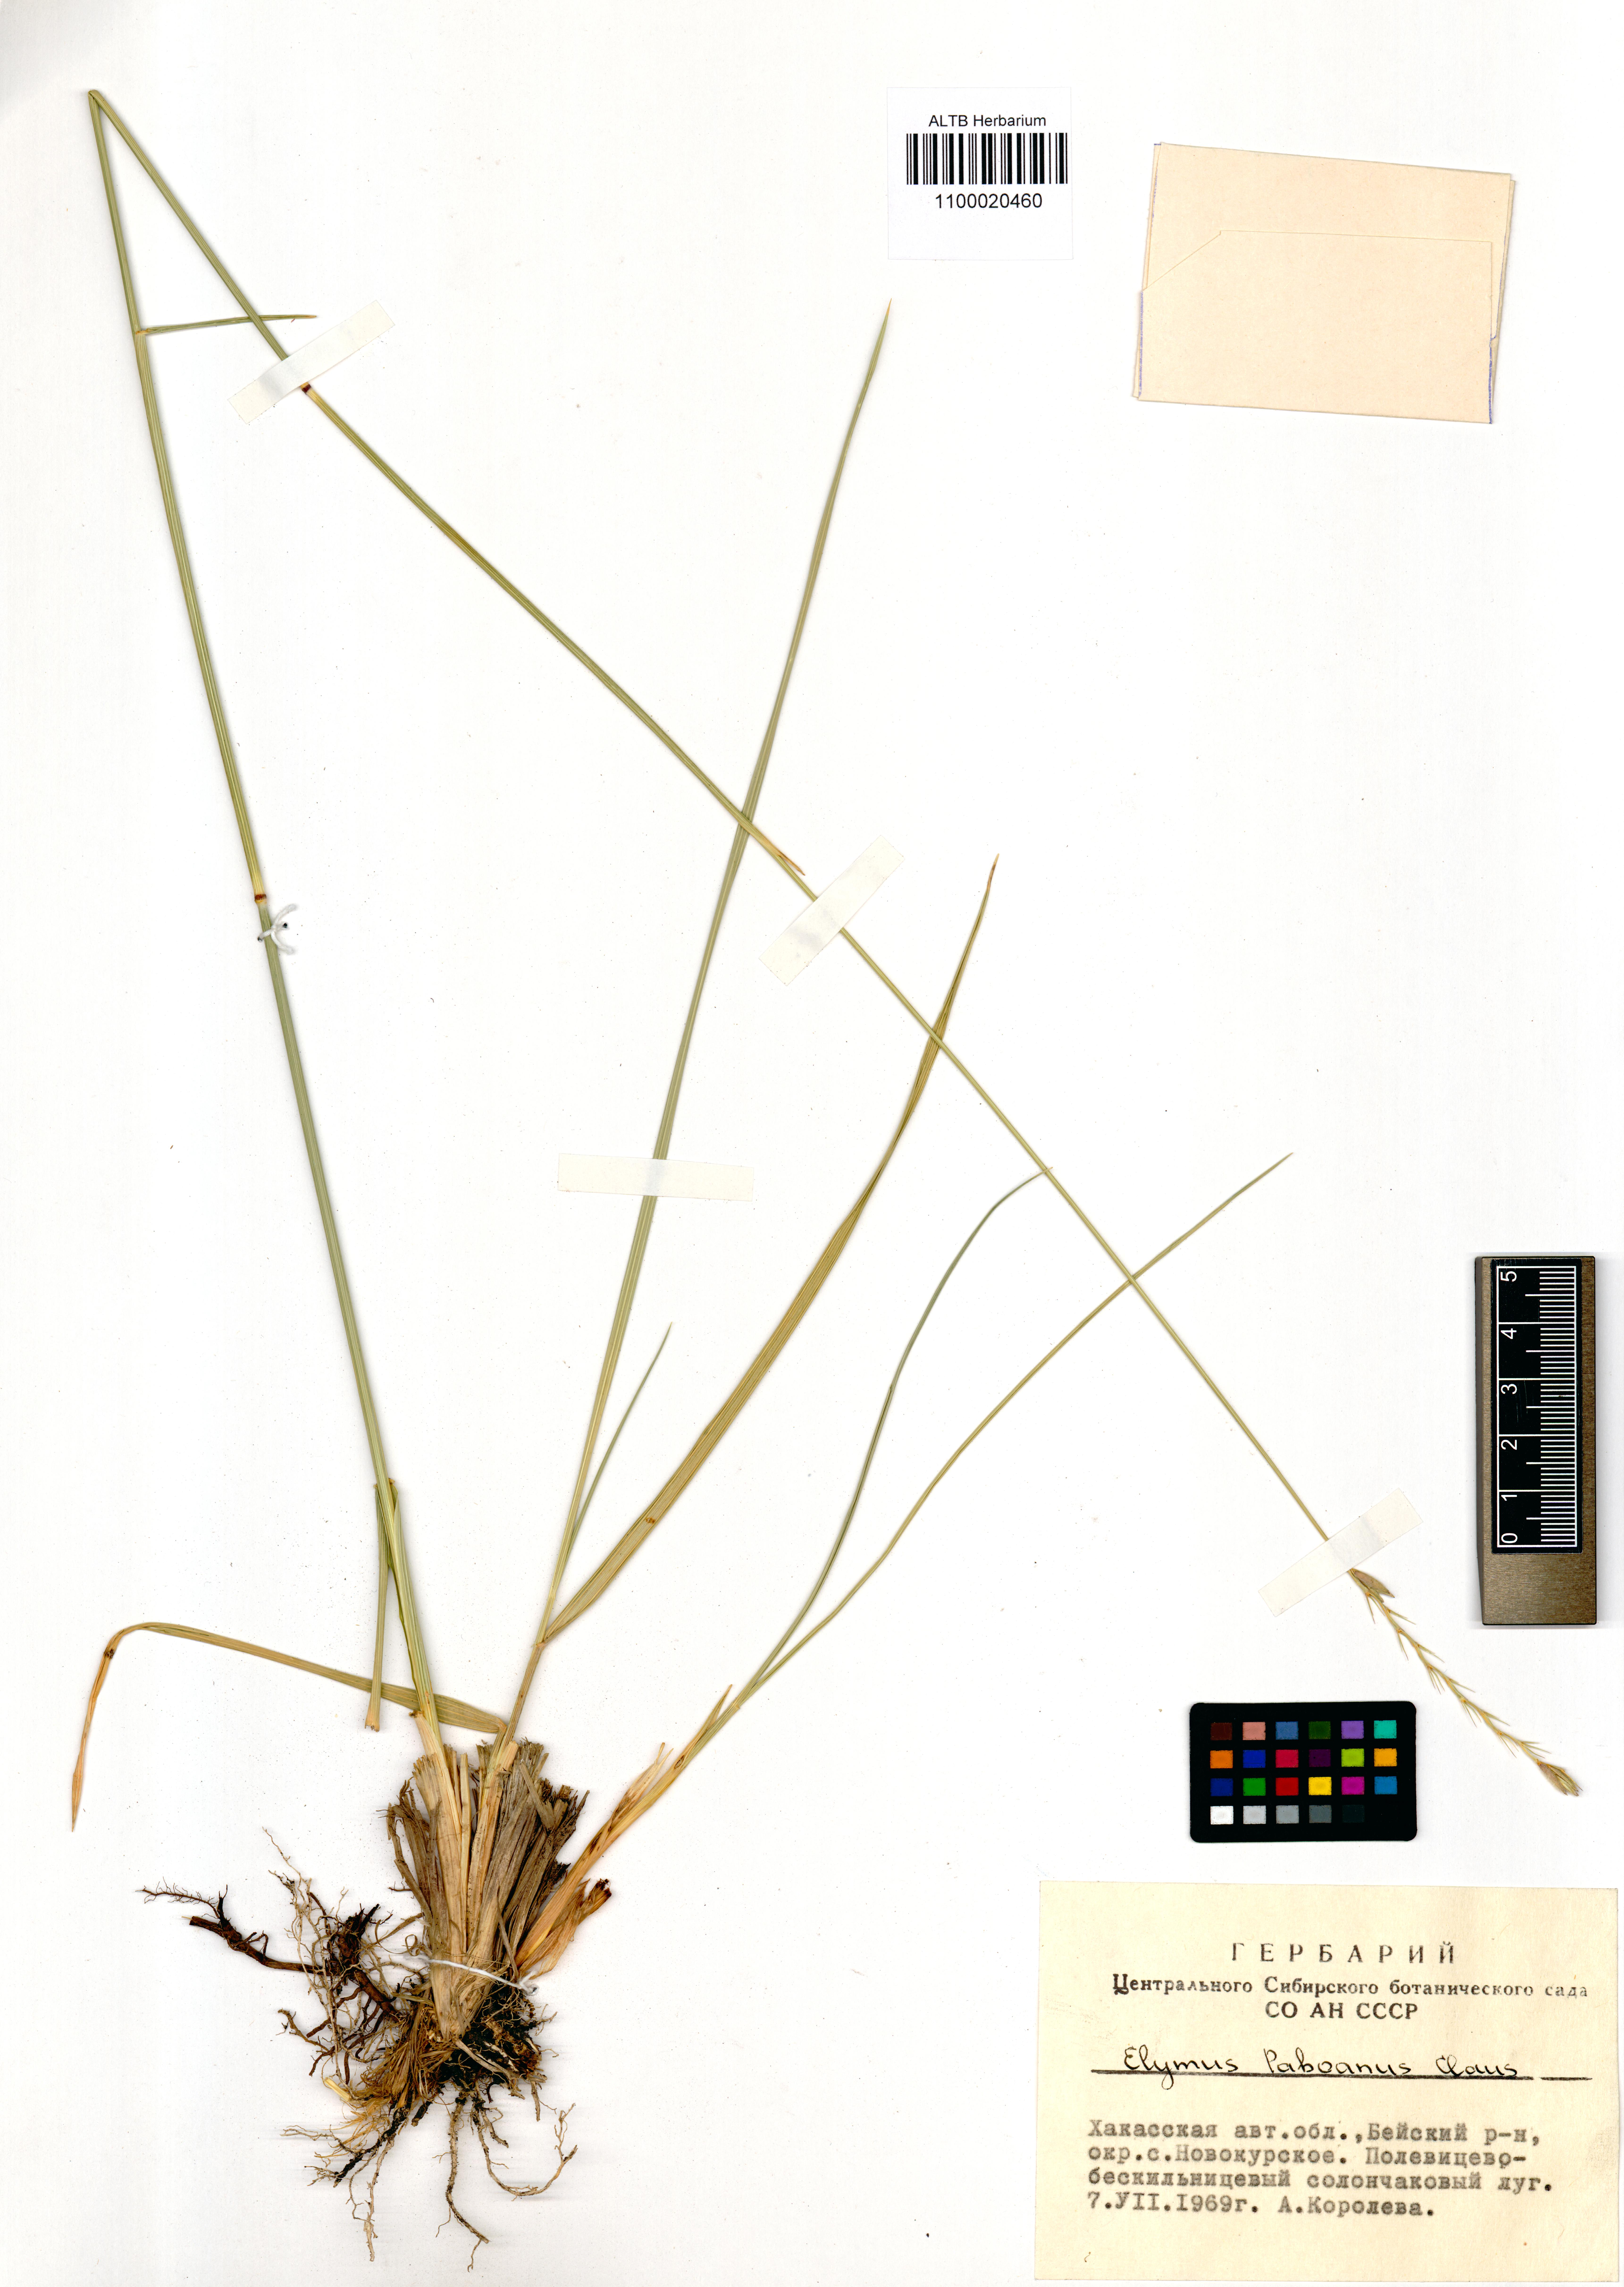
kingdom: Plantae
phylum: Tracheophyta
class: Liliopsida
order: Poales
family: Poaceae
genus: Leymus
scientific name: Leymus paboanus
